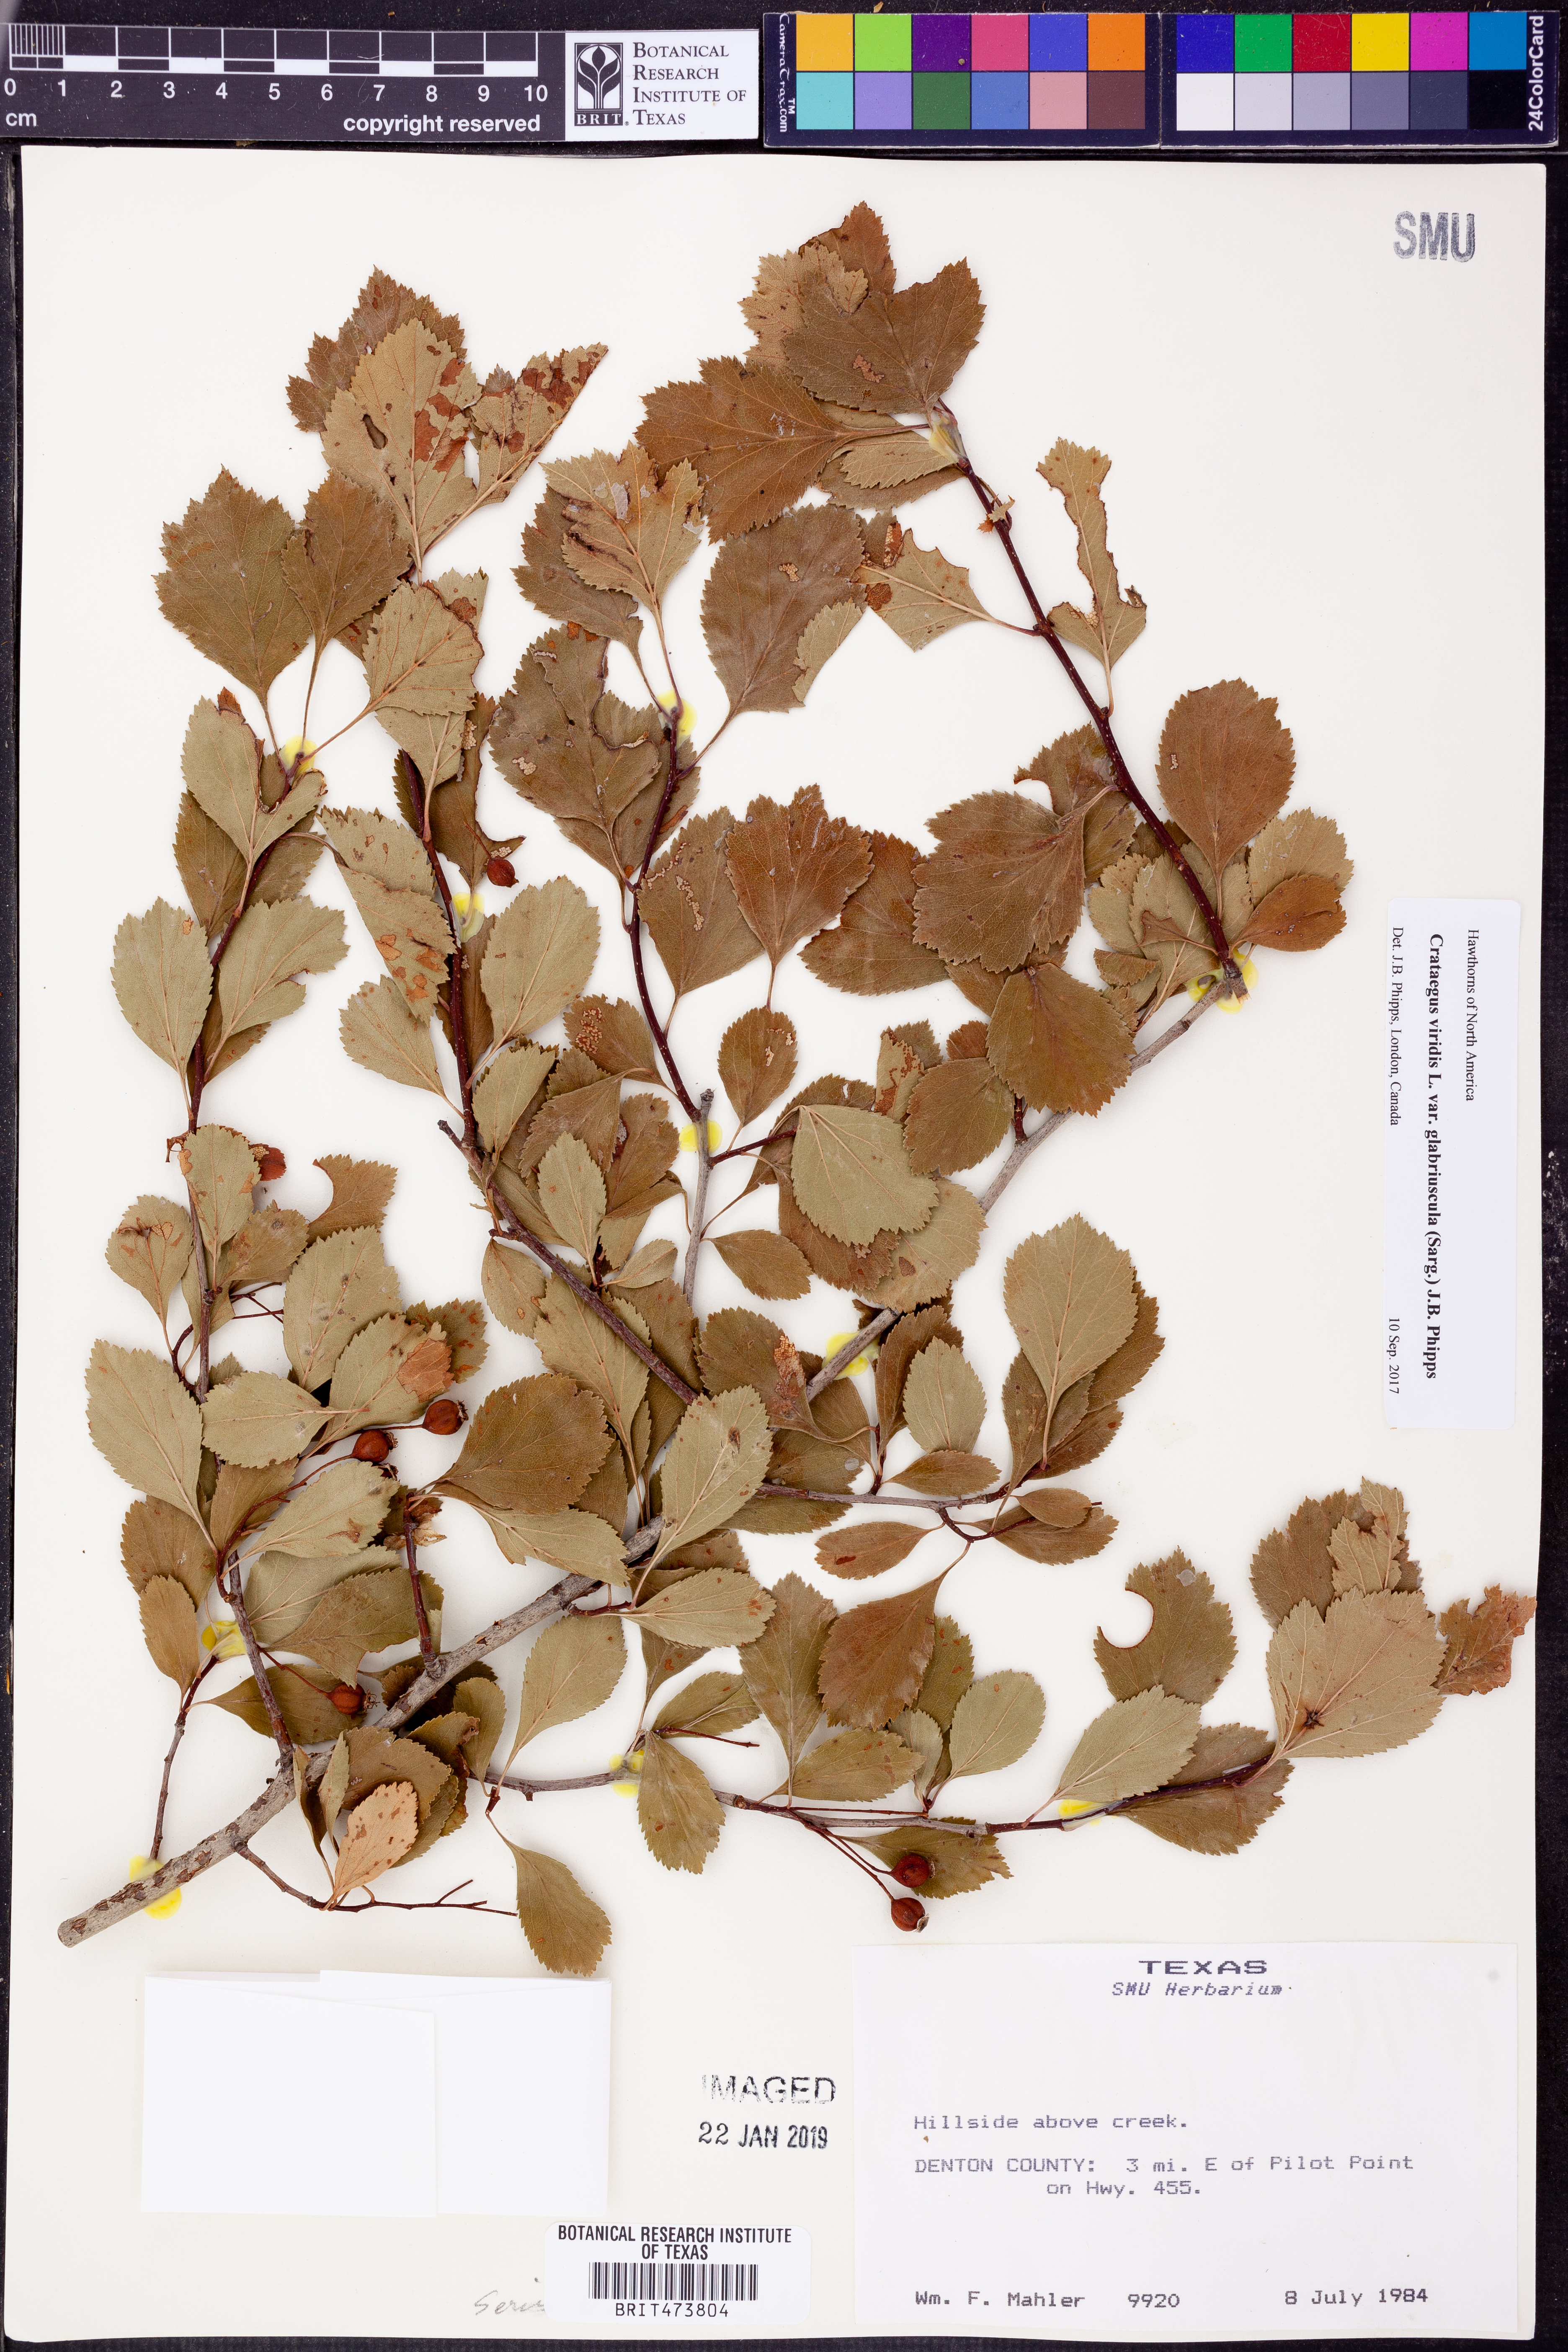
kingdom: Plantae
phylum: Tracheophyta
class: Magnoliopsida
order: Rosales
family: Rosaceae
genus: Crataegus
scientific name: Crataegus viridis
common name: Southernthorn
